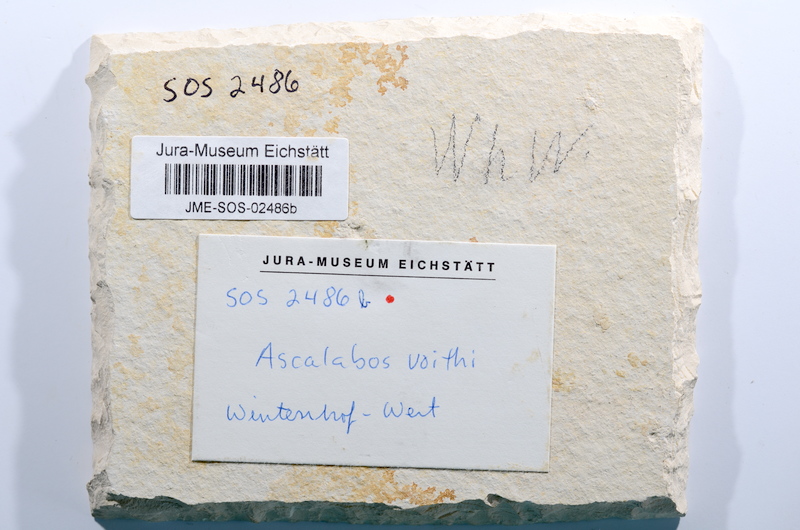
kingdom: Animalia
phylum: Chordata
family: Ascalaboidae
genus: Ascalabos
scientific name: Ascalabos voithii
